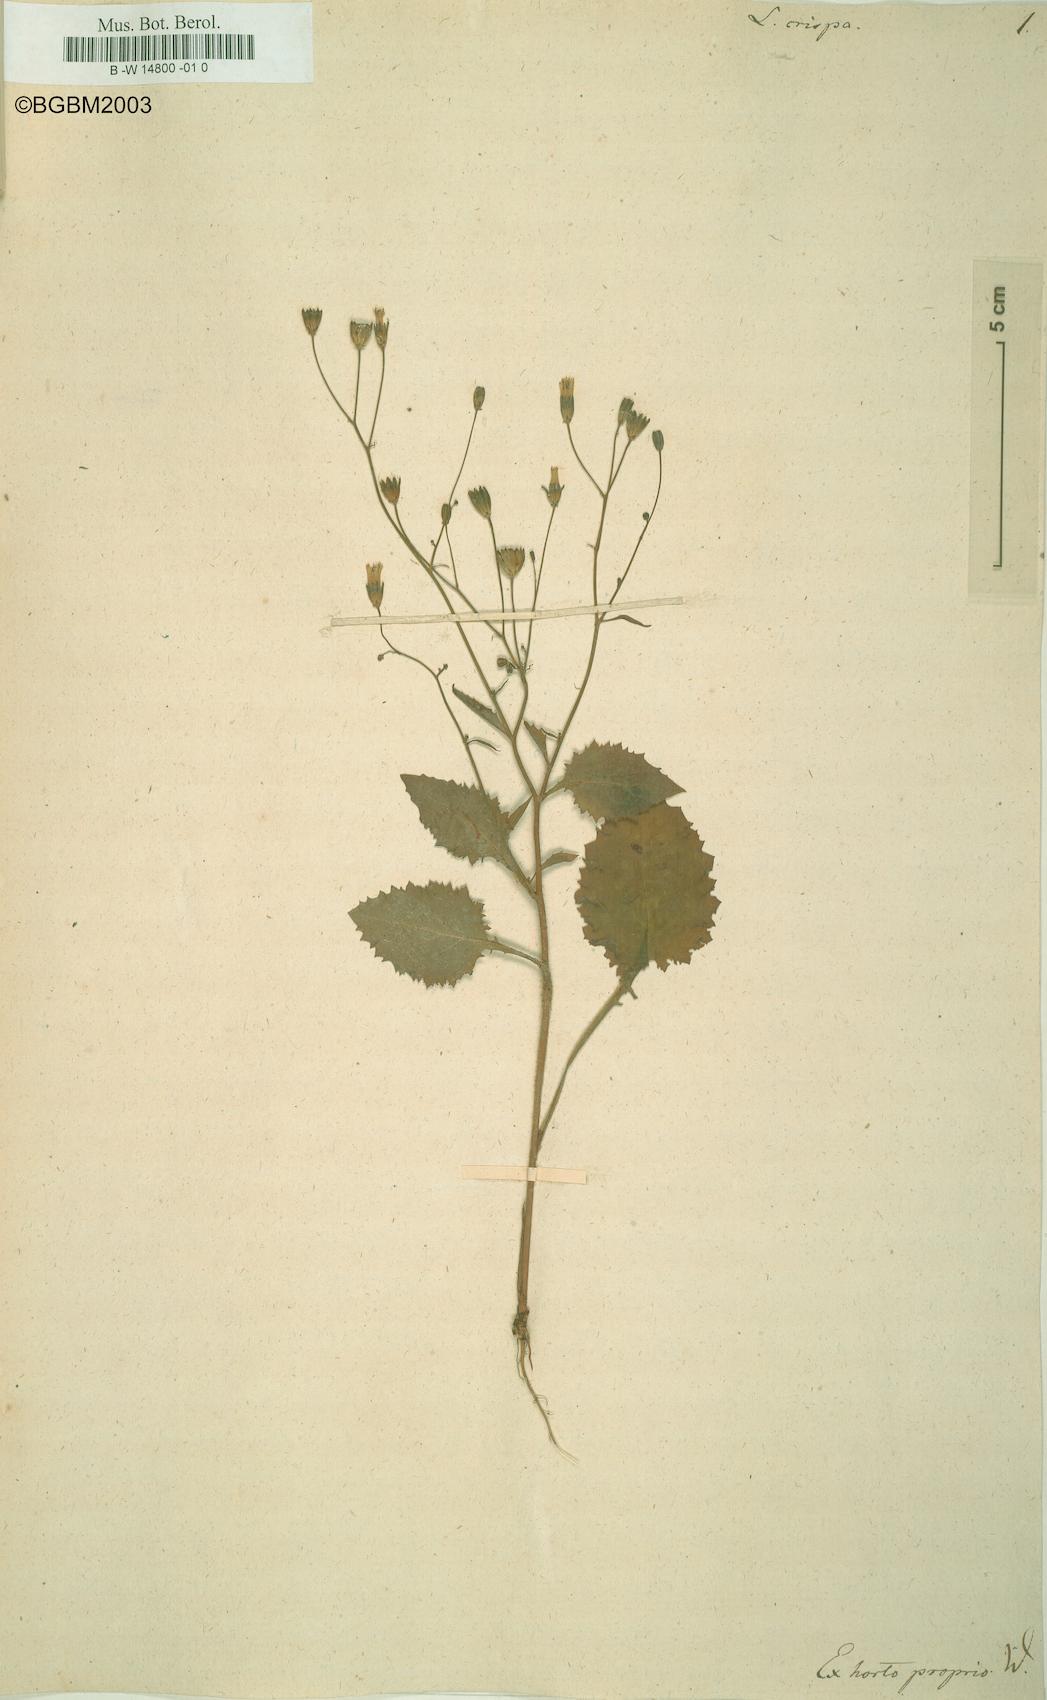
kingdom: Plantae
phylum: Tracheophyta
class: Magnoliopsida
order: Asterales
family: Asteraceae
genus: Lapsana
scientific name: Lapsana communis
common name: Nipplewort
